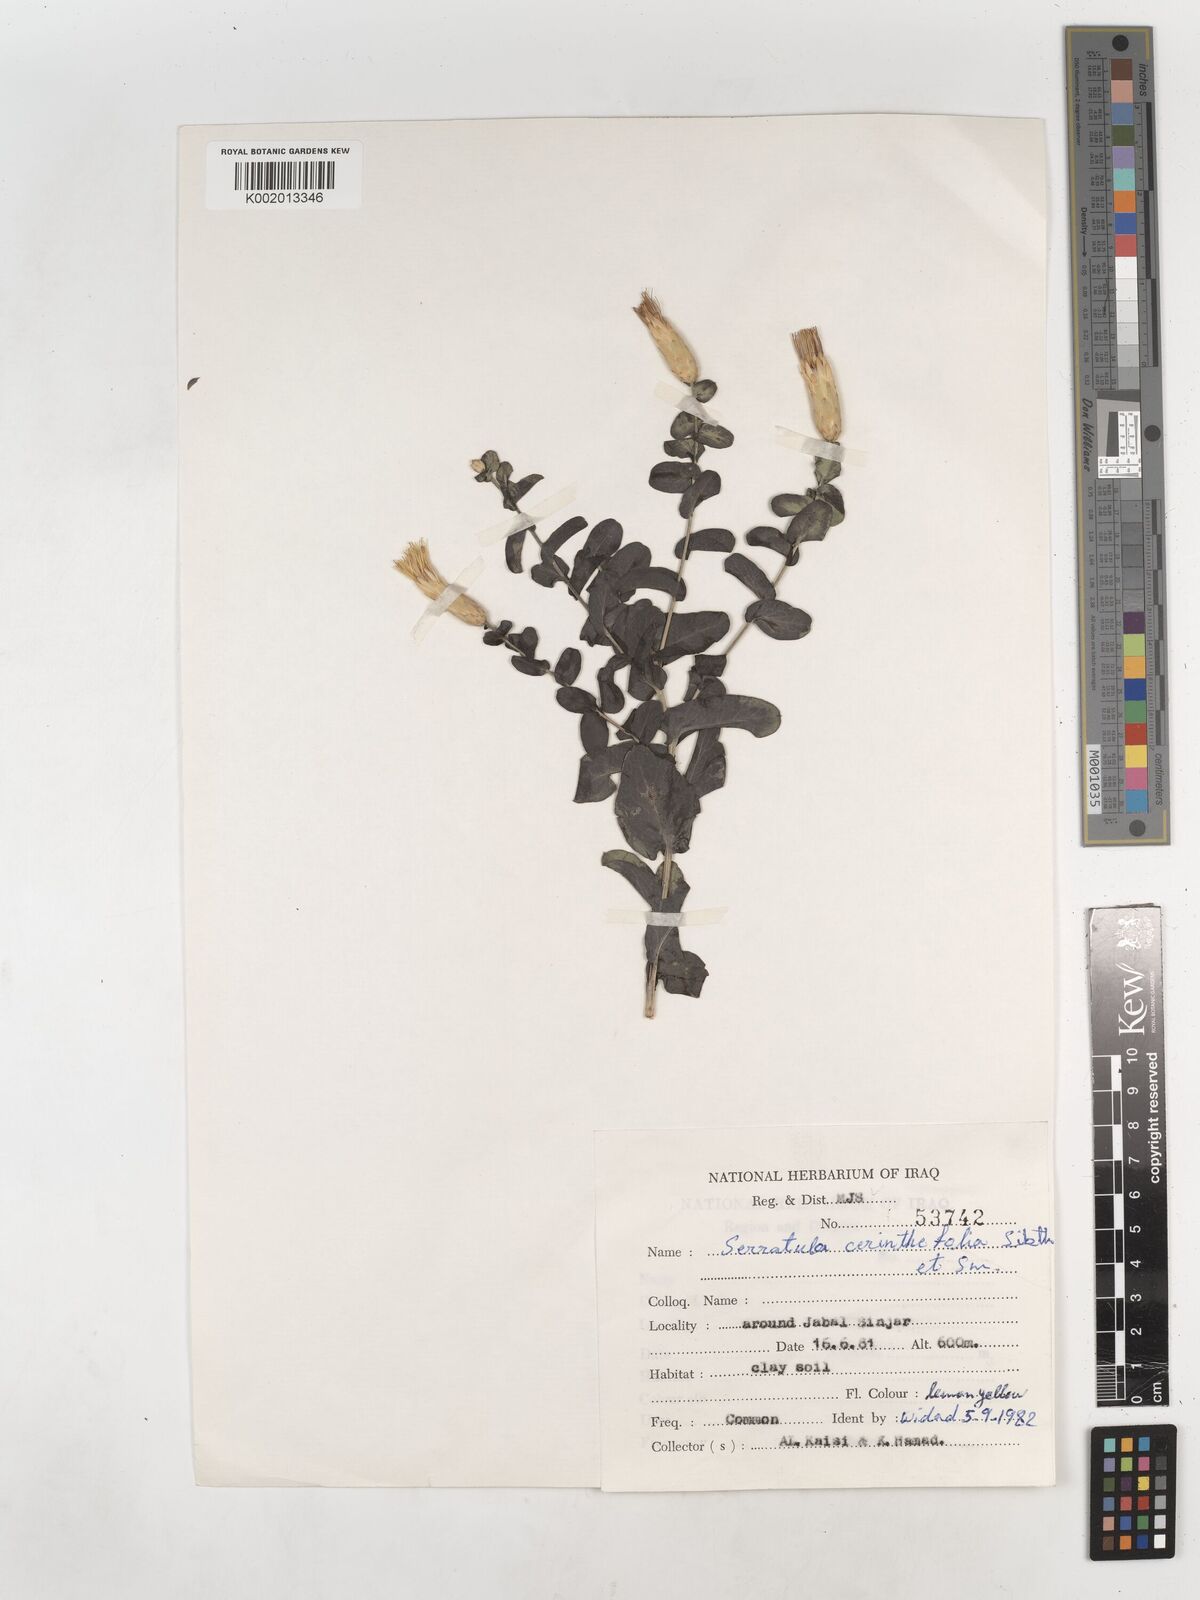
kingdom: Plantae
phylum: Tracheophyta
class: Magnoliopsida
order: Asterales
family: Asteraceae
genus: Klasea
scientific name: Klasea cerinthifolia
